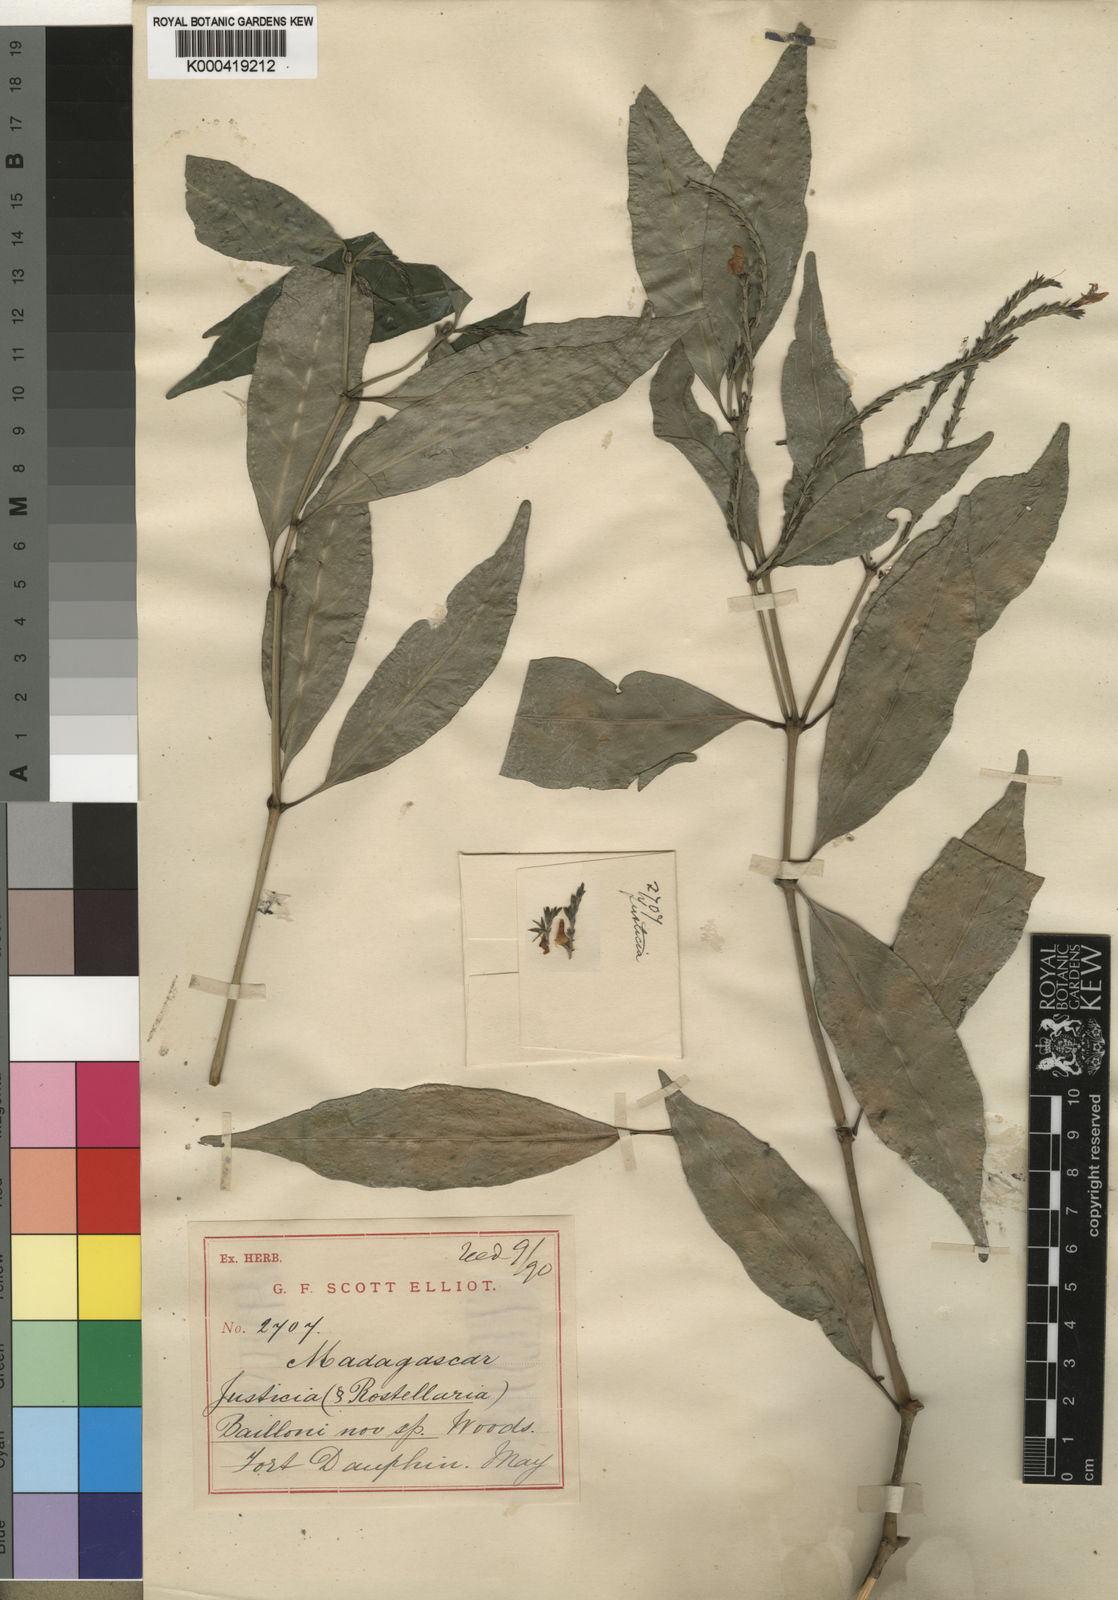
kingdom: Plantae
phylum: Tracheophyta
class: Magnoliopsida
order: Lamiales
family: Acanthaceae
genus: Justicia
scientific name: Justicia baillonii
